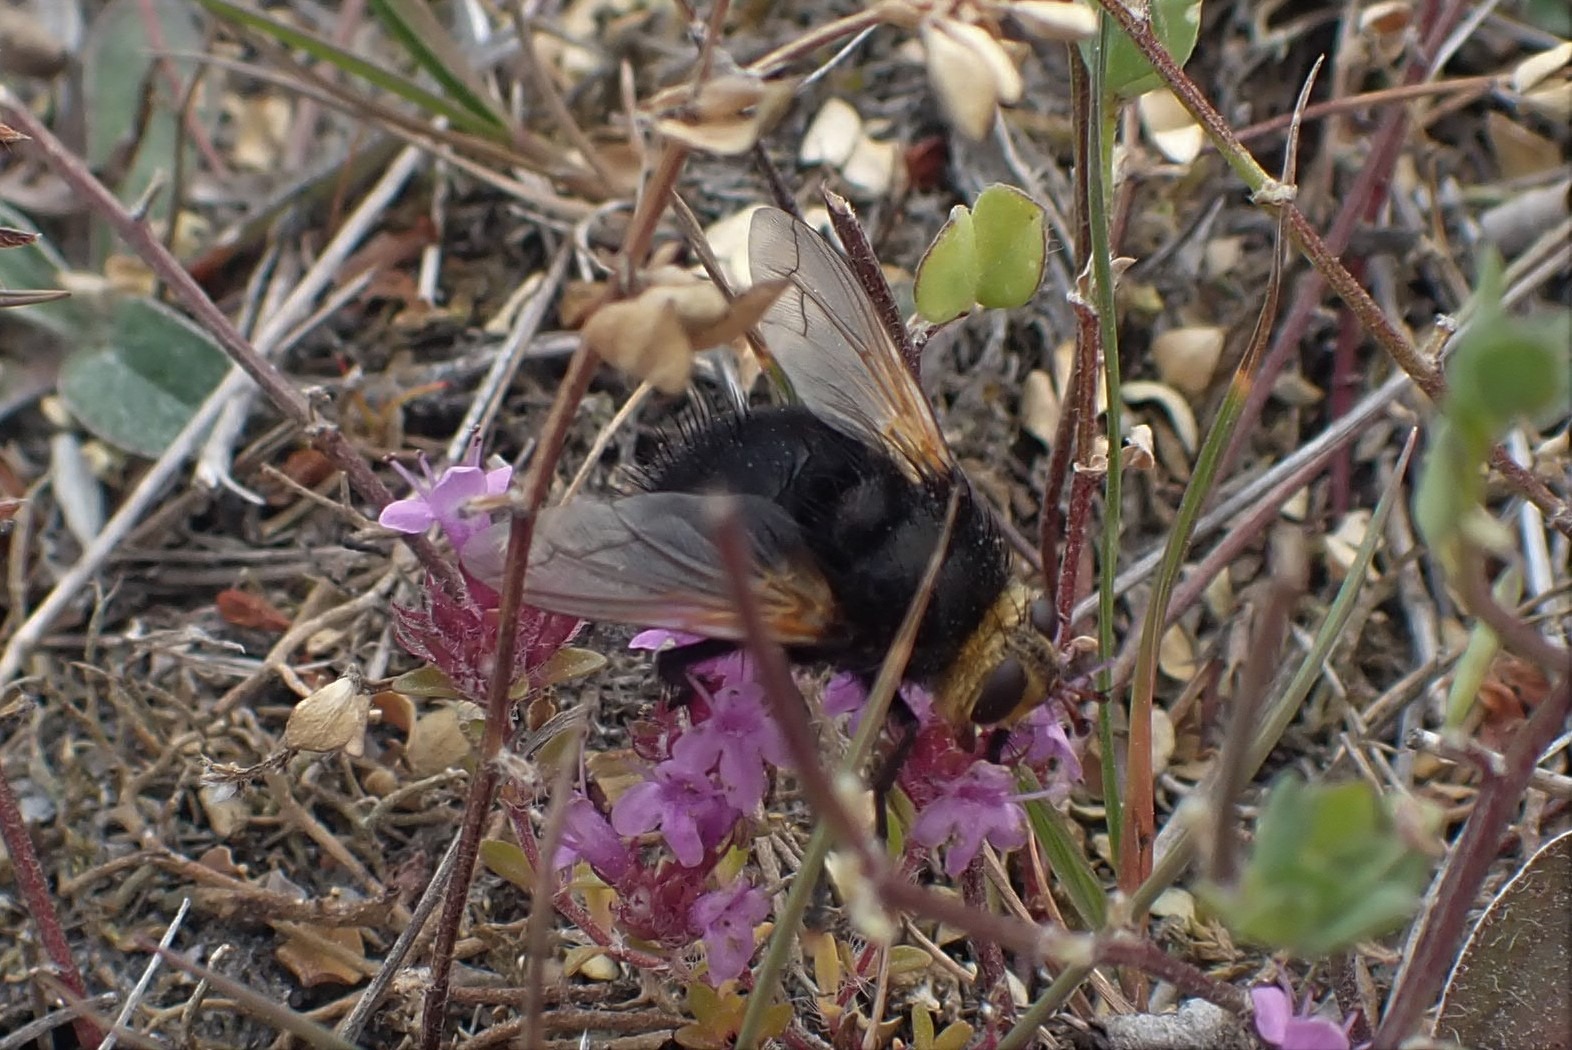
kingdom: Animalia
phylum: Arthropoda
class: Insecta
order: Diptera
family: Tachinidae
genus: Tachina
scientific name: Tachina grossa
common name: Kæmpefluen Harald
